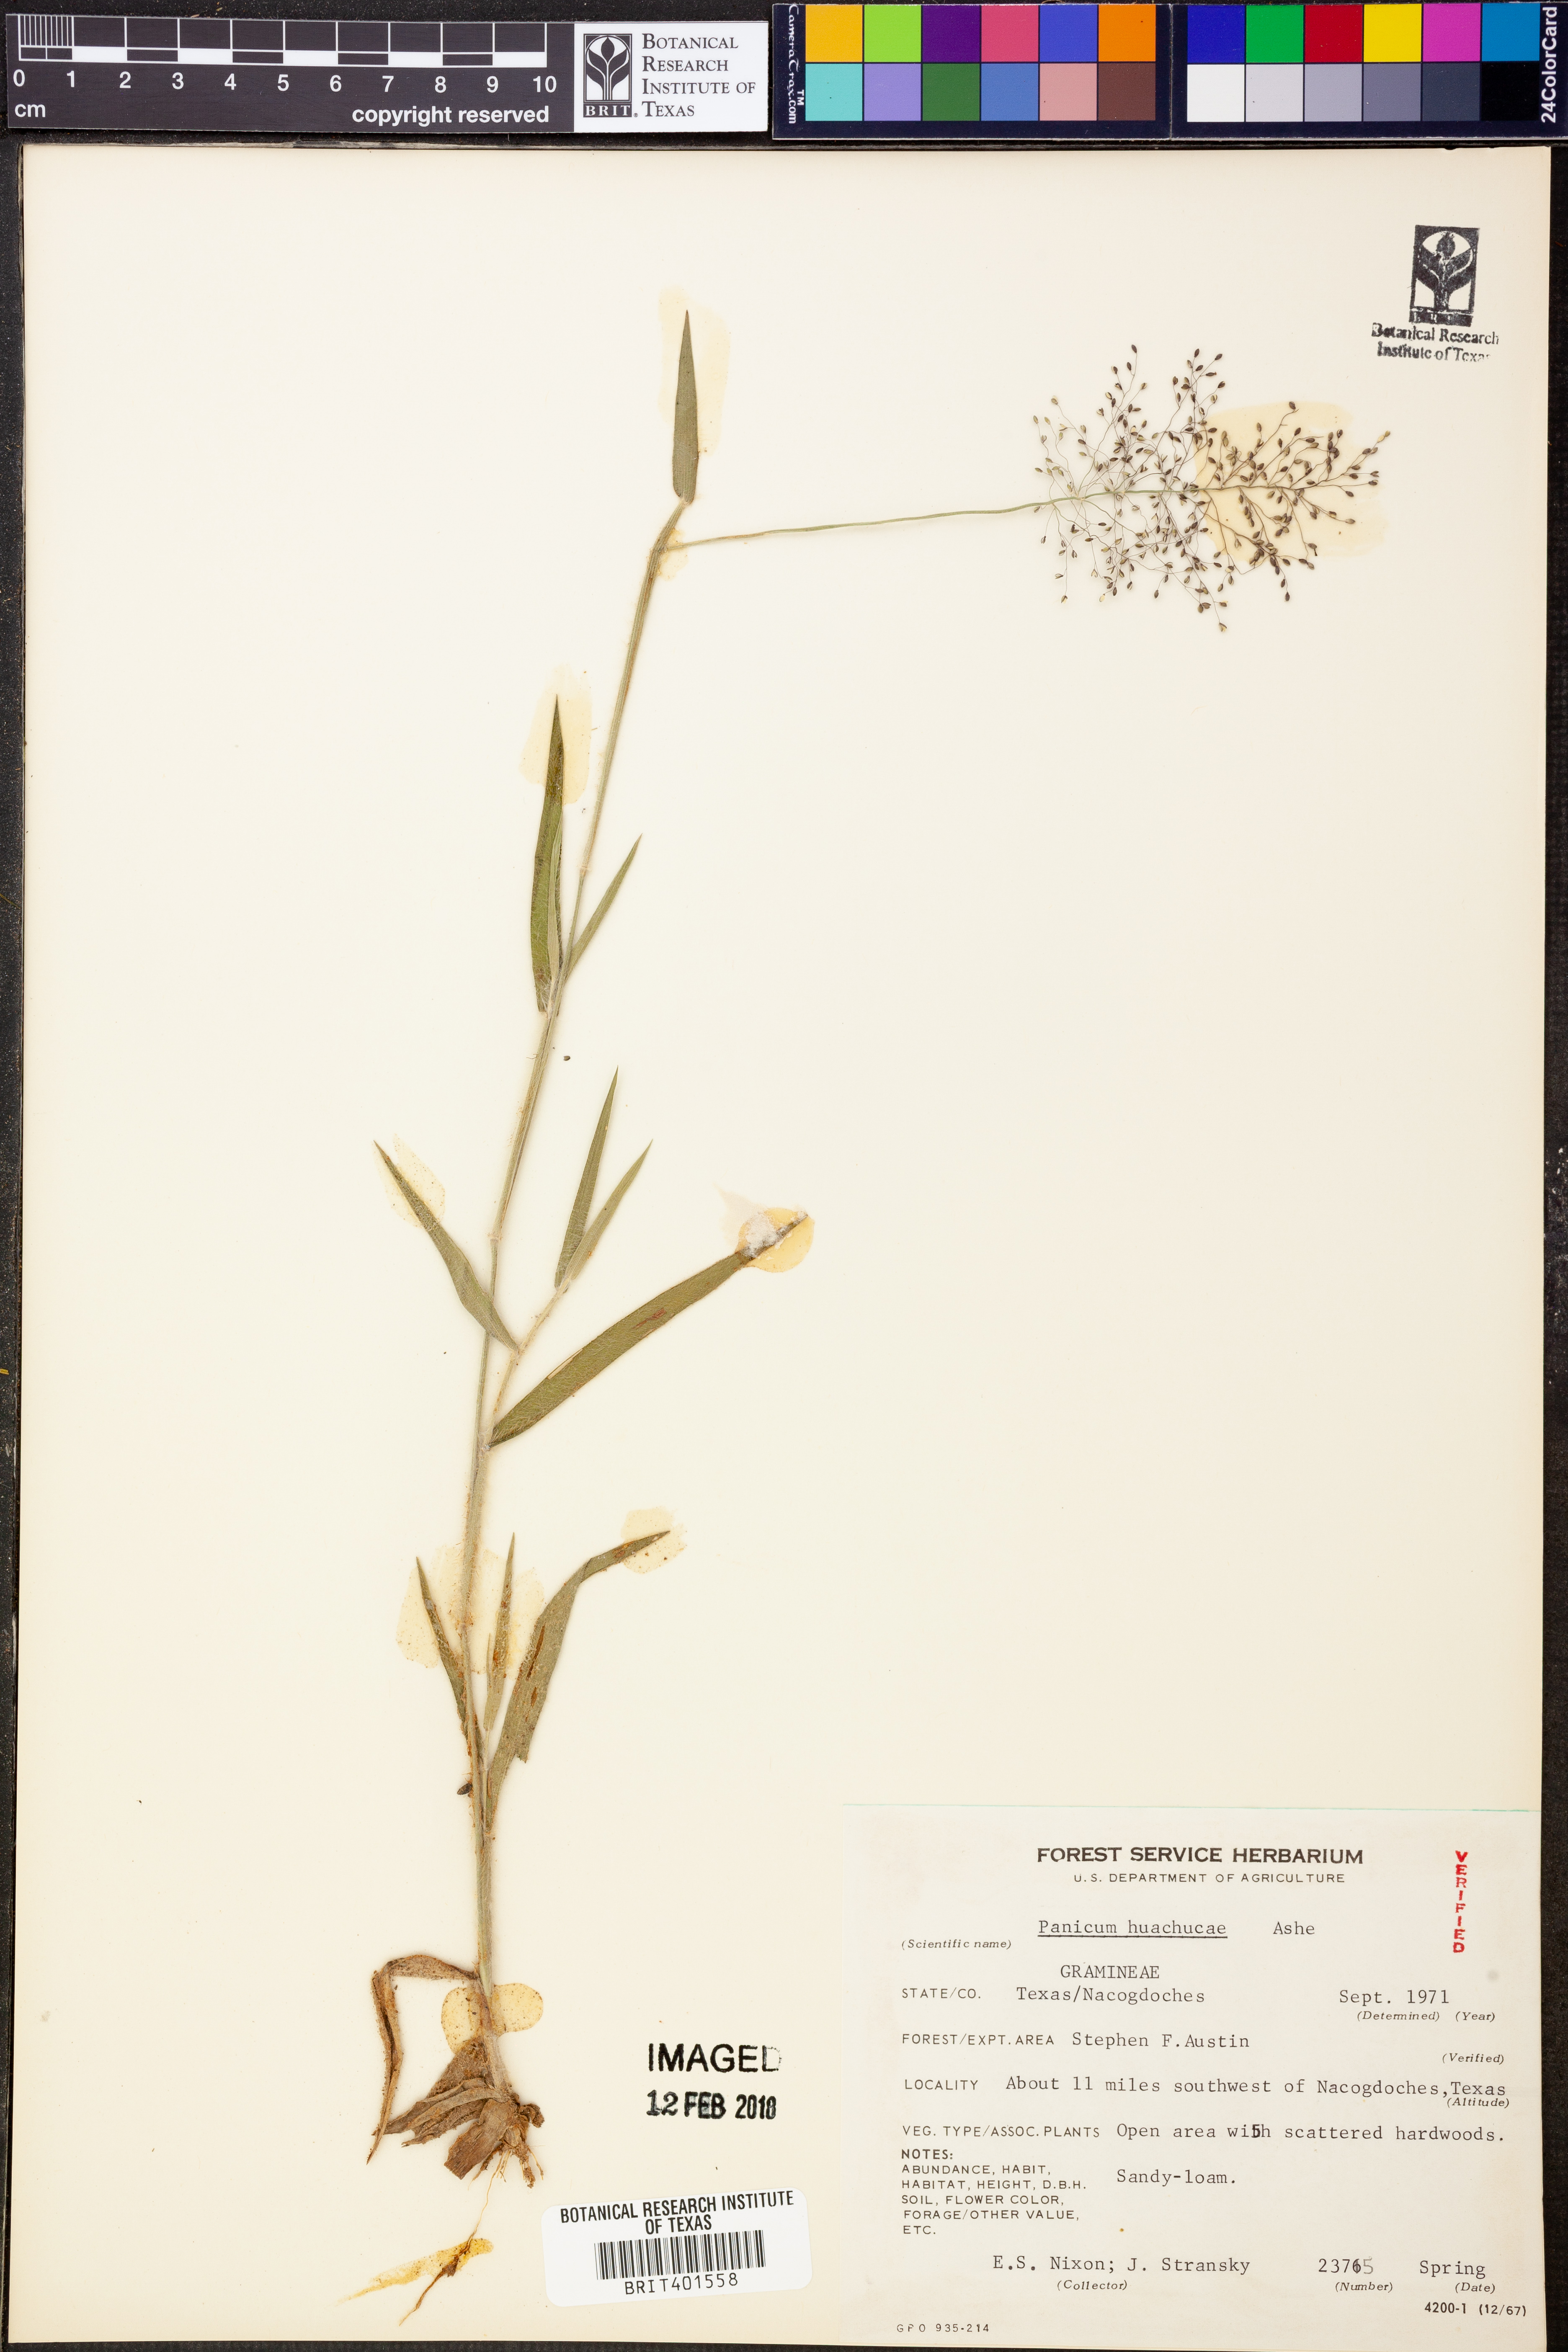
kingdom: Plantae
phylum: Tracheophyta
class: Liliopsida
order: Poales
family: Poaceae
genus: Dichanthelium
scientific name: Dichanthelium lanuginosum
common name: Woolly panicgrass
